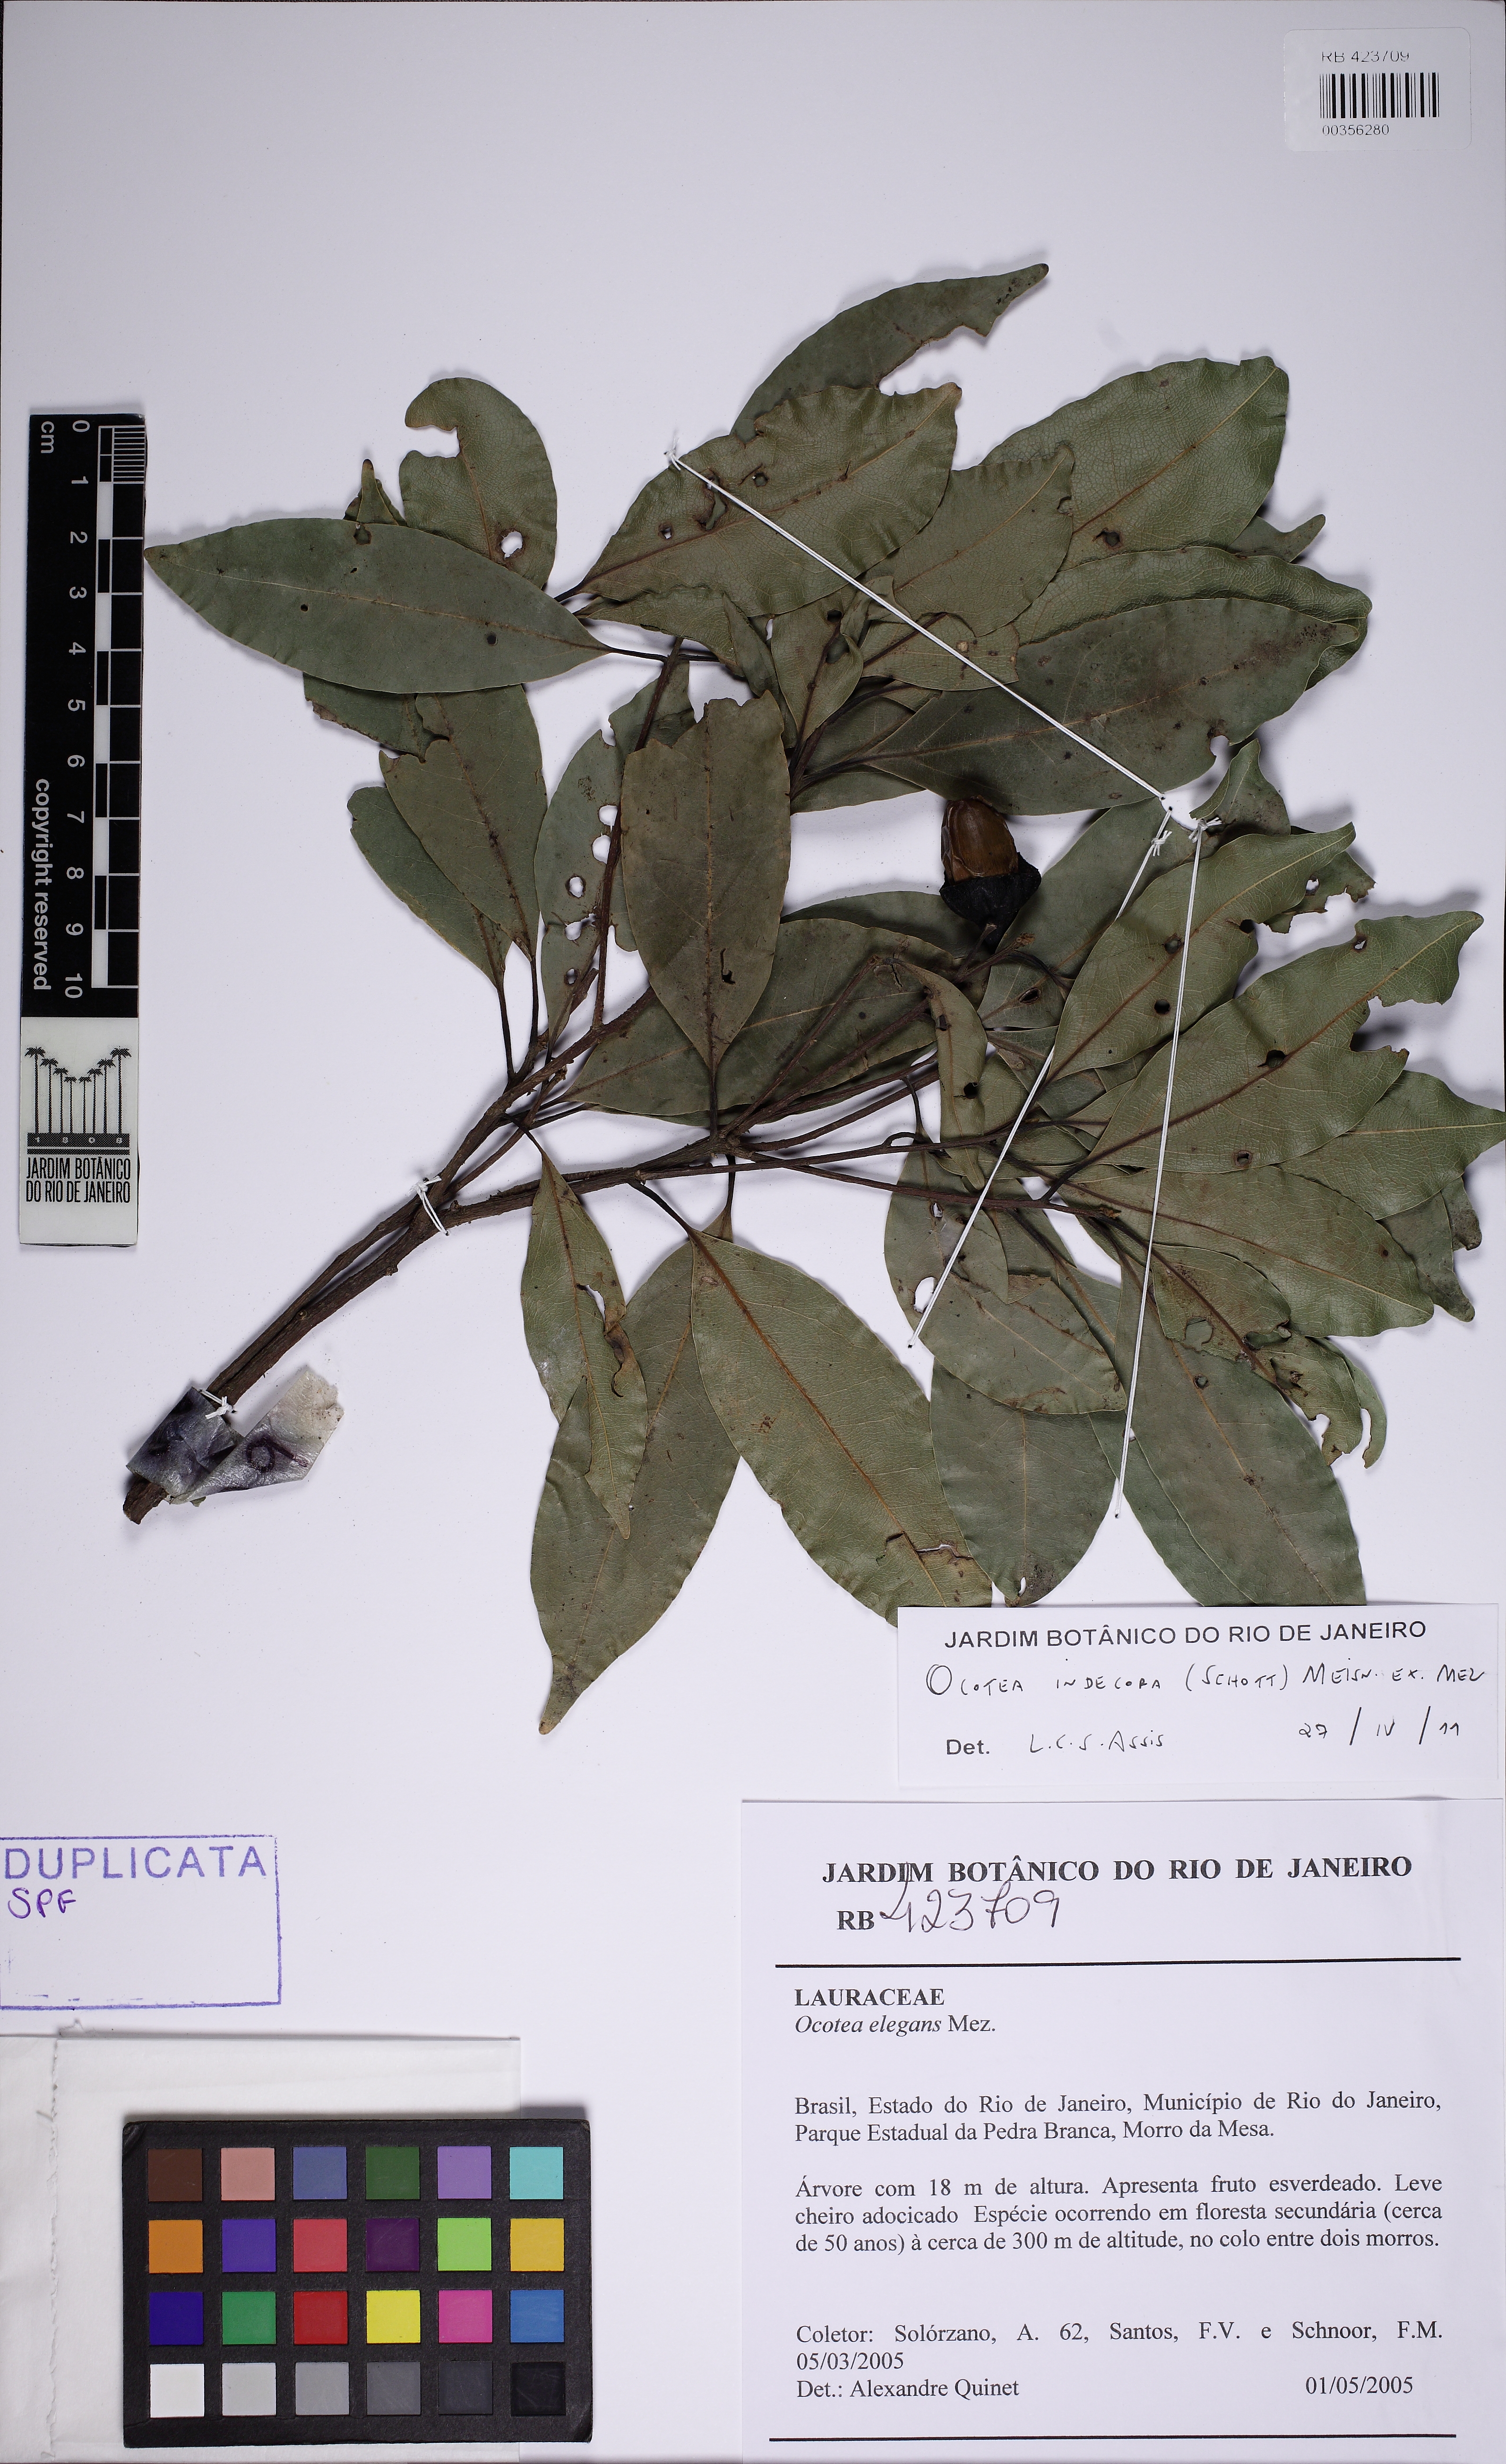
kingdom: Plantae
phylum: Tracheophyta
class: Magnoliopsida
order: Laurales
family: Lauraceae
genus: Mespilodaphne
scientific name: Mespilodaphne indecora
